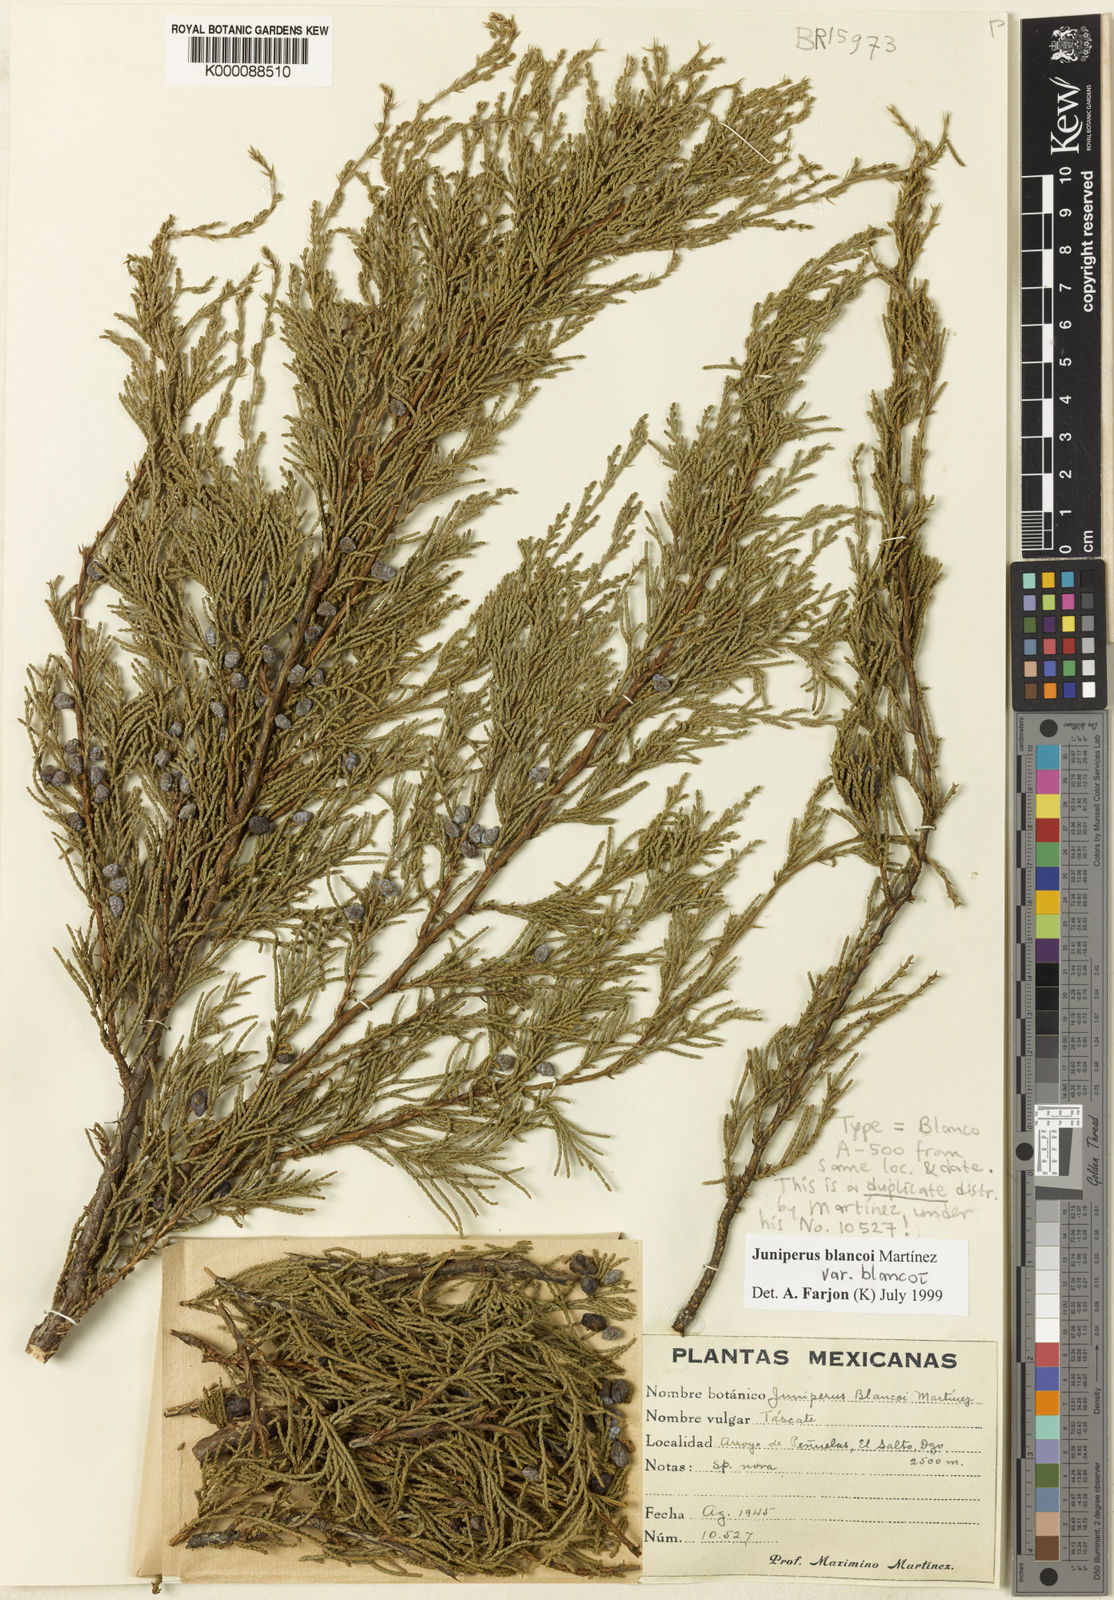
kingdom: Plantae
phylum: Tracheophyta
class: Pinopsida
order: Pinales
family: Cupressaceae
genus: Juniperus
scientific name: Juniperus
